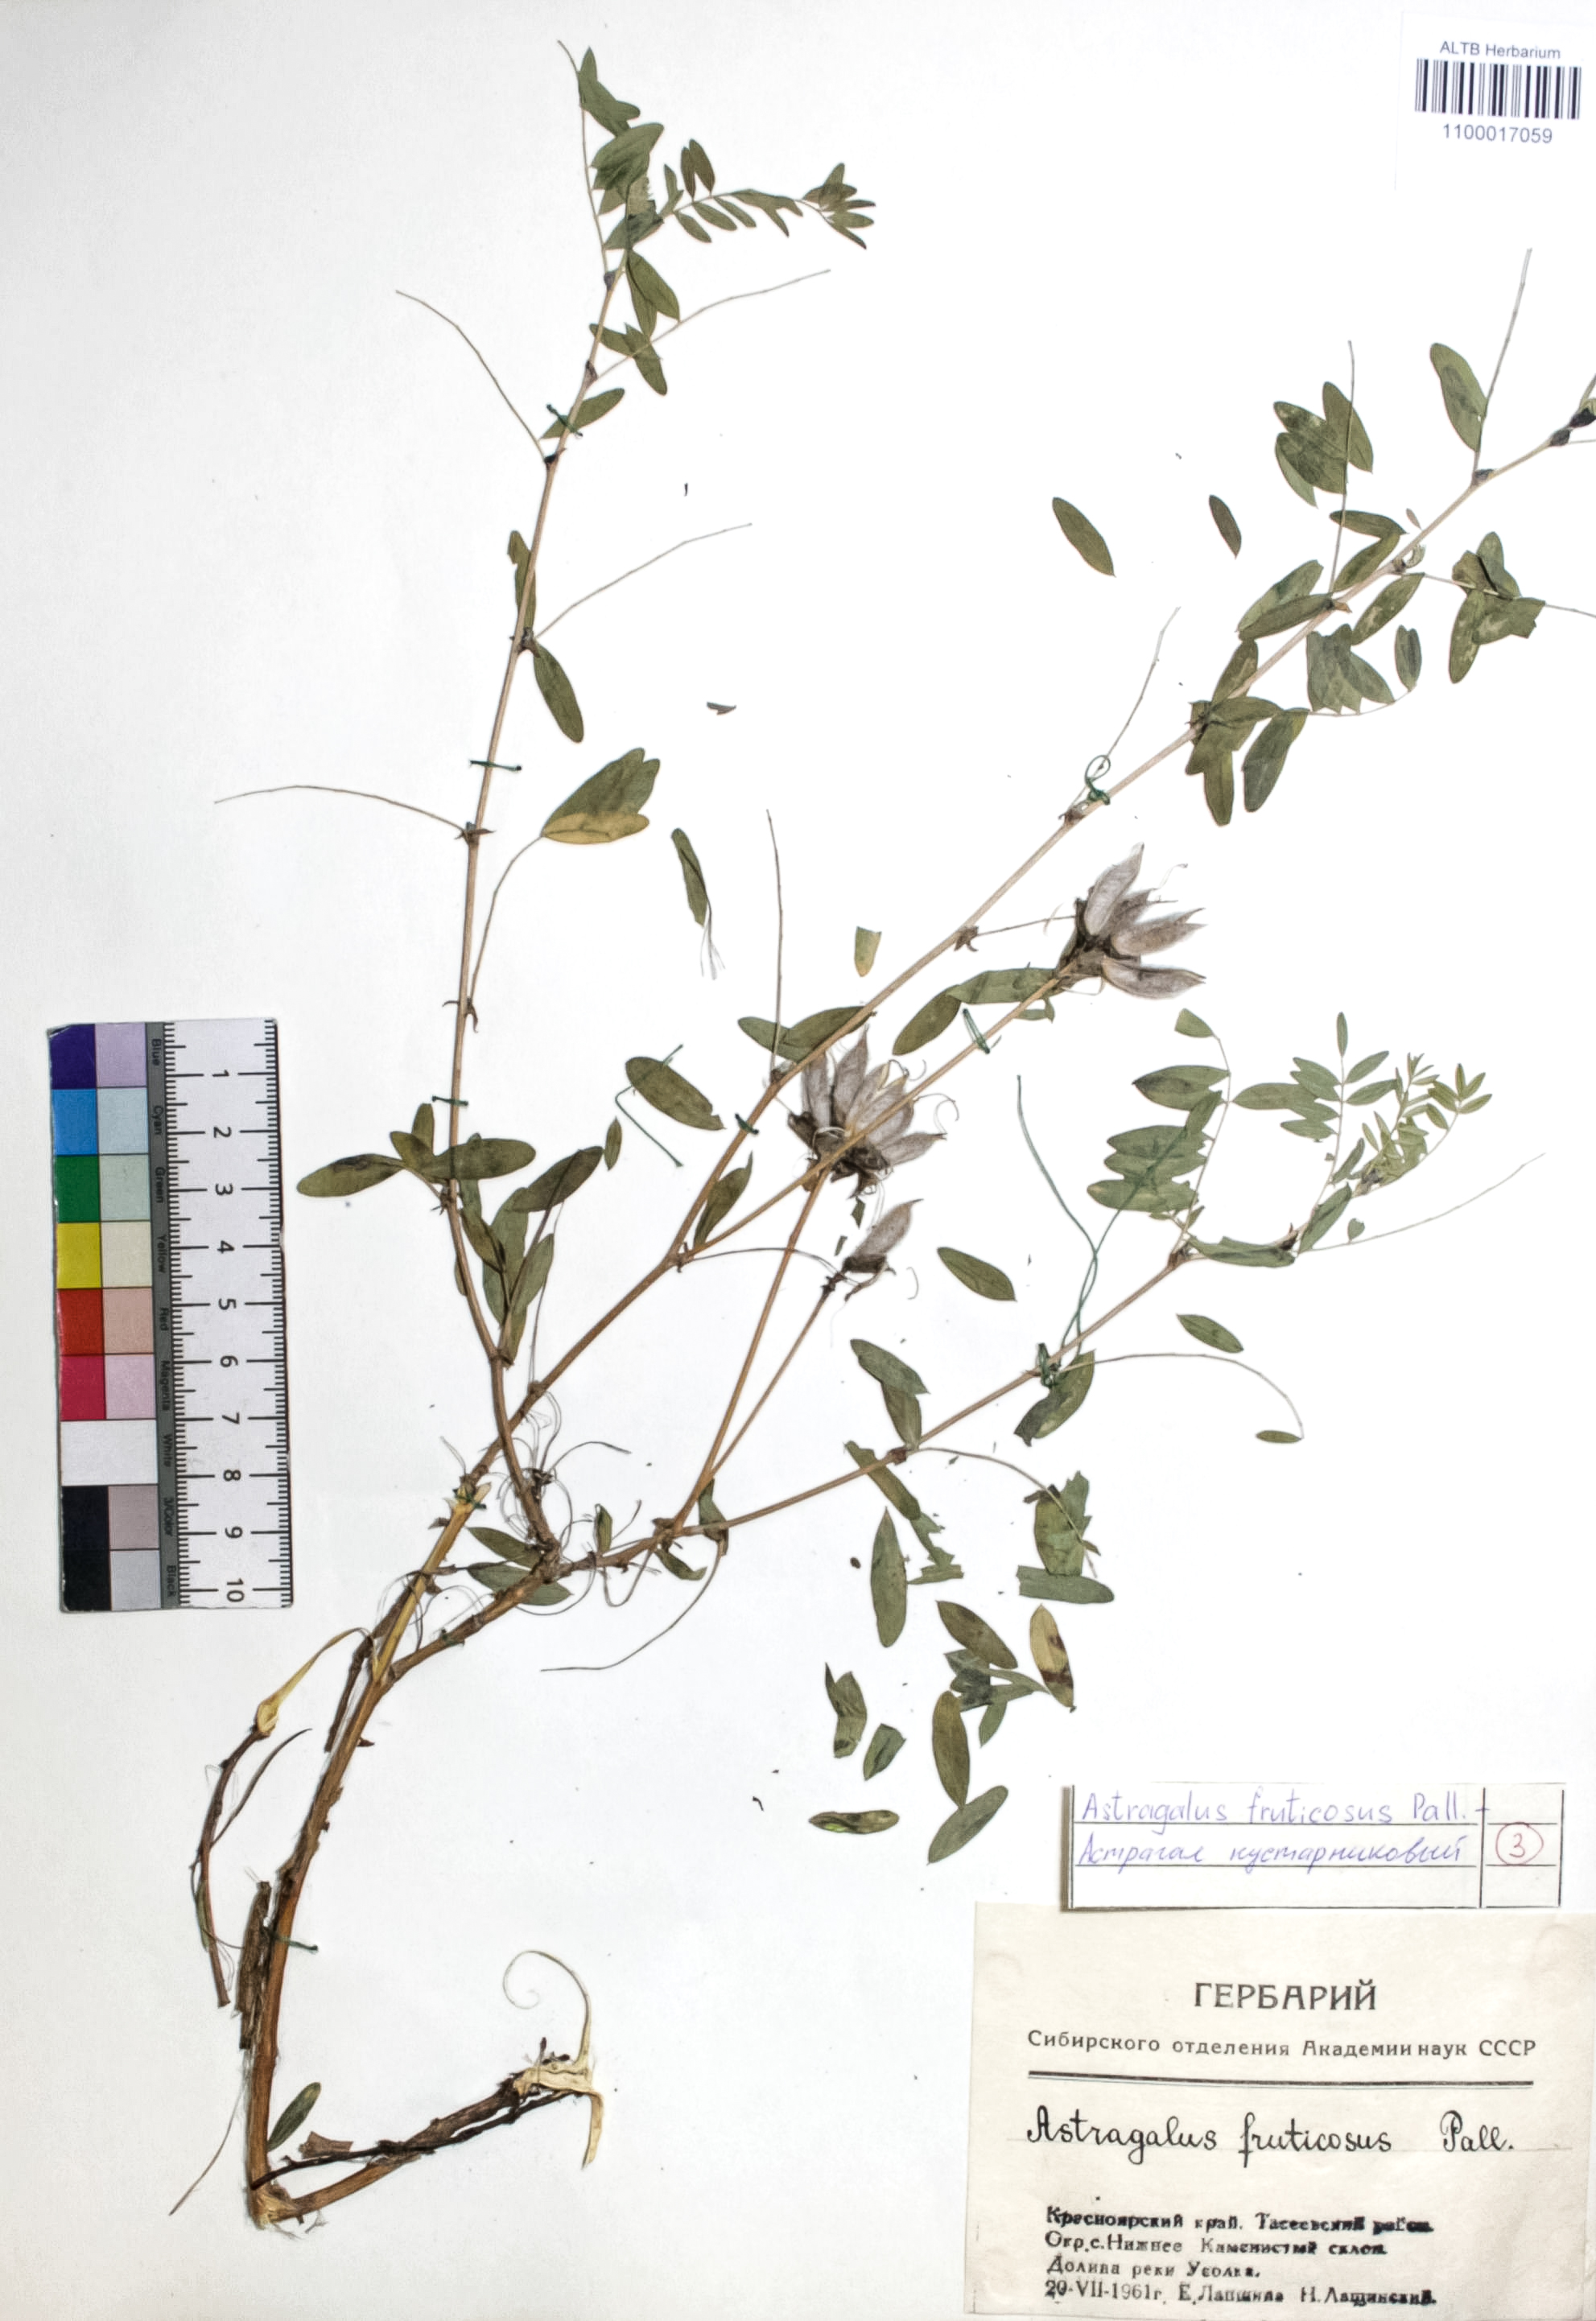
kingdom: Plantae
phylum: Tracheophyta
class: Magnoliopsida
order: Fabales
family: Fabaceae
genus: Astragalus
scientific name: Astragalus syriacus
